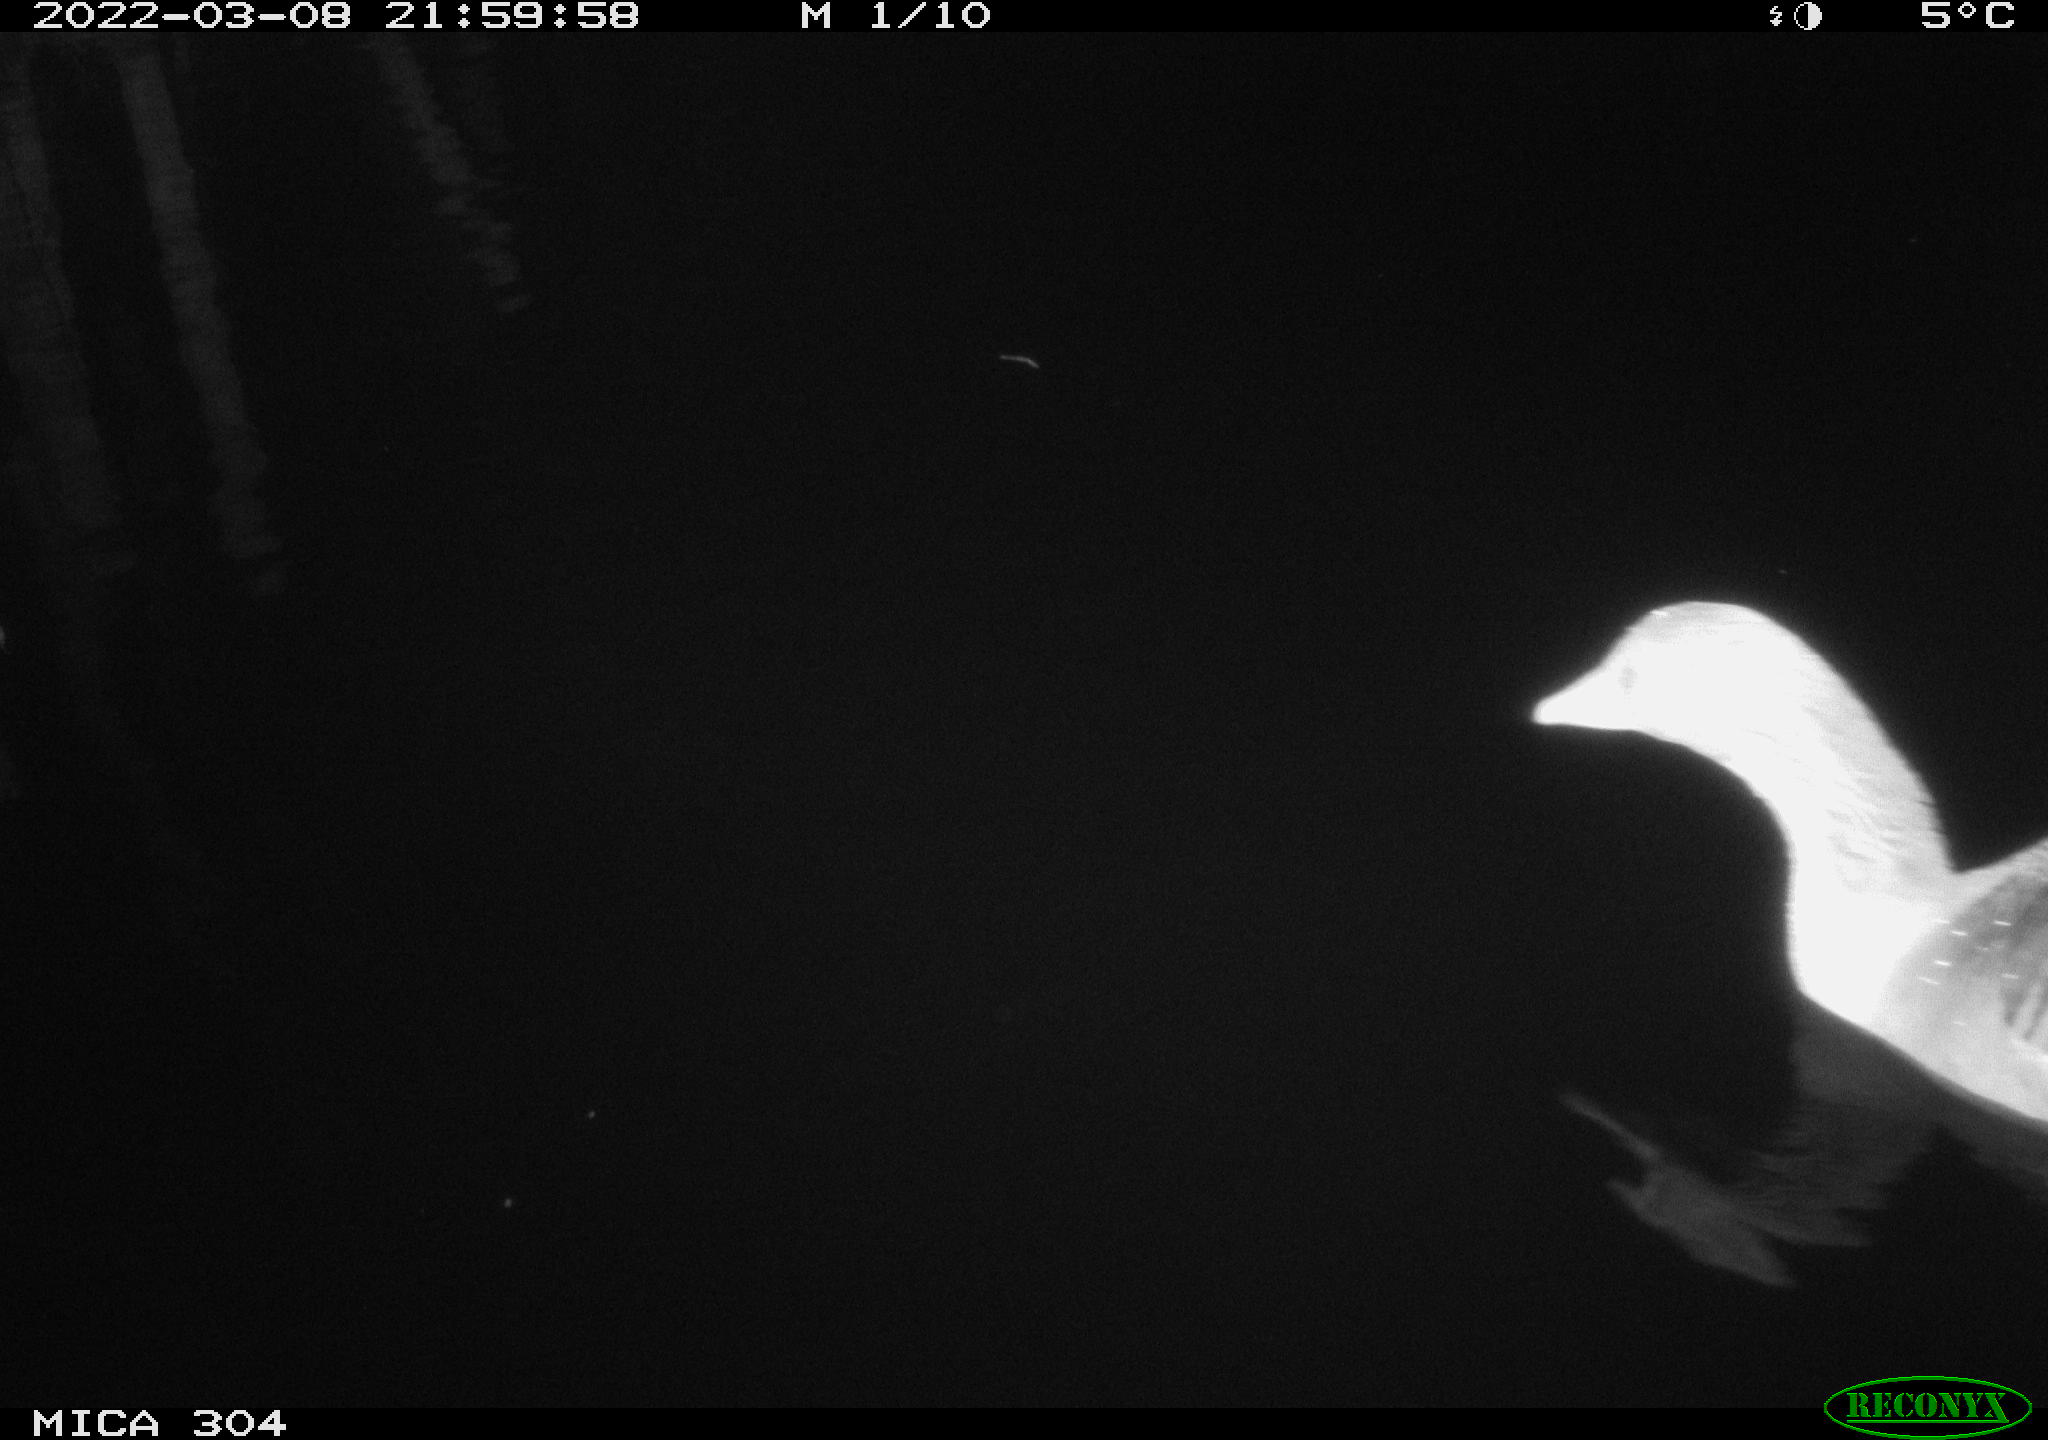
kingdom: Animalia
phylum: Chordata
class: Aves
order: Anseriformes
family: Anatidae
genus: Anser
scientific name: Anser anser
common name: Greylag goose
